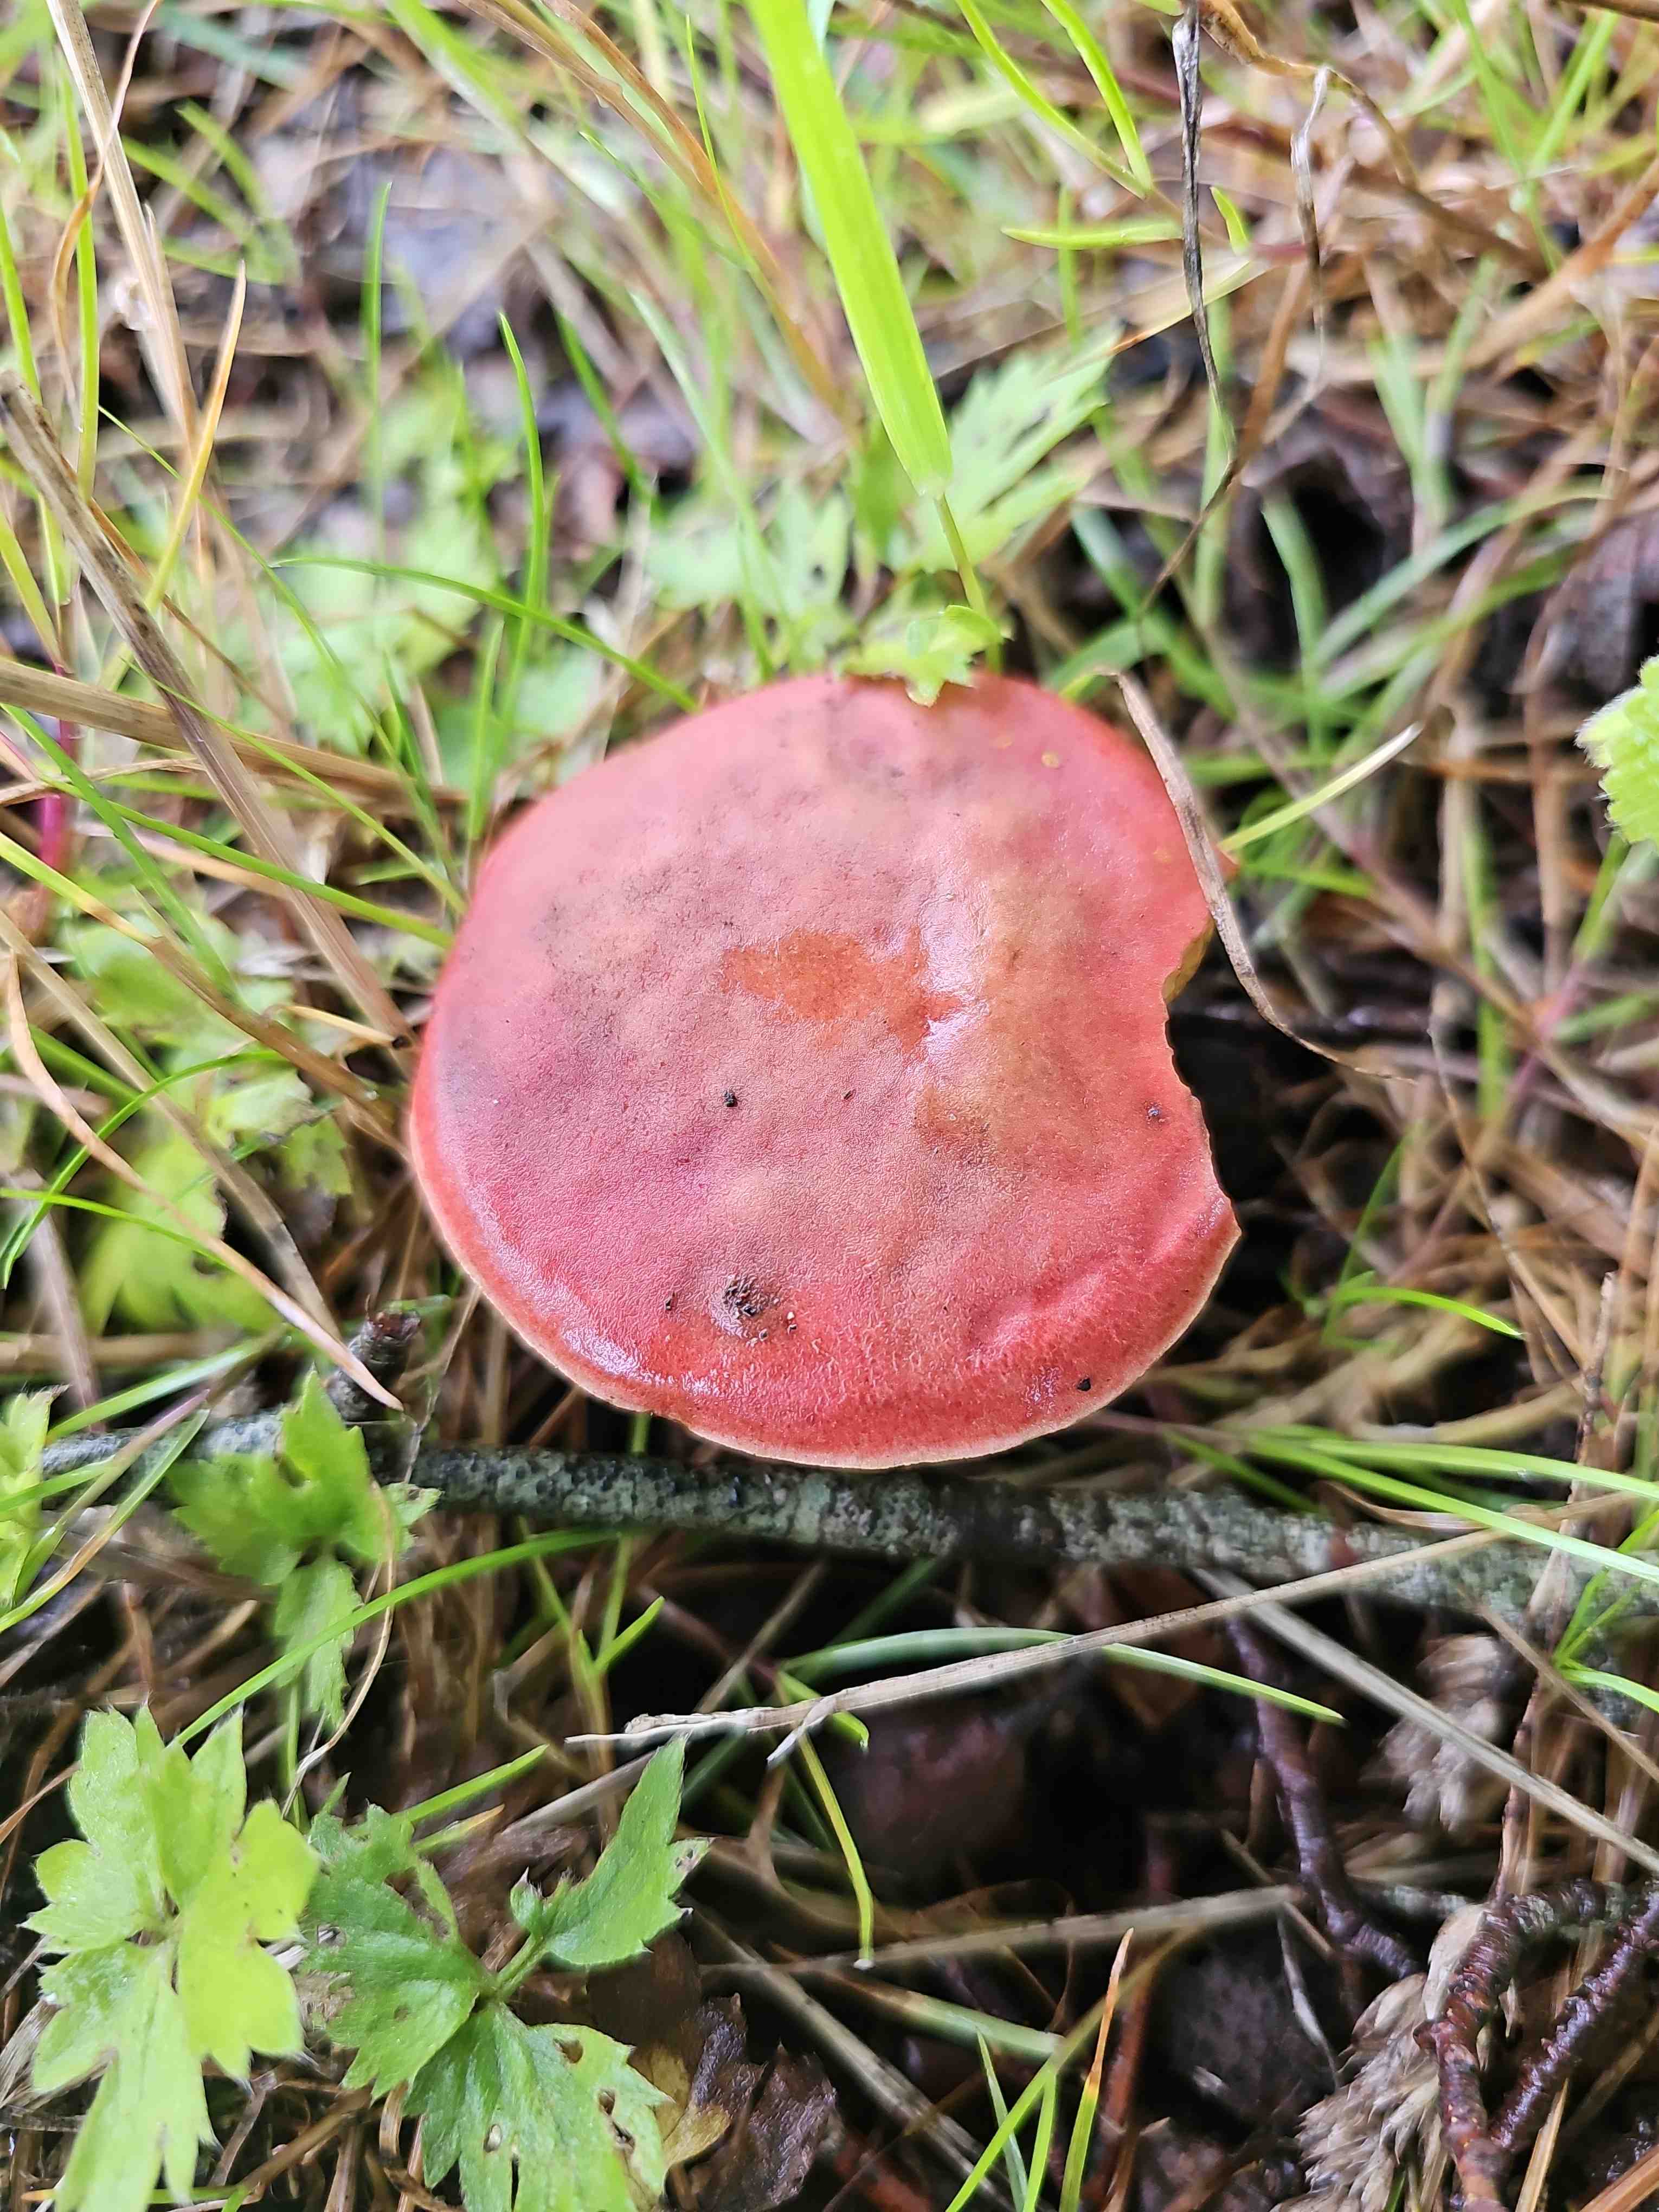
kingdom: Fungi
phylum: Basidiomycota
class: Agaricomycetes
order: Boletales
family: Boletaceae
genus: Hortiboletus
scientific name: Hortiboletus rubellus
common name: blodrød rørhat
